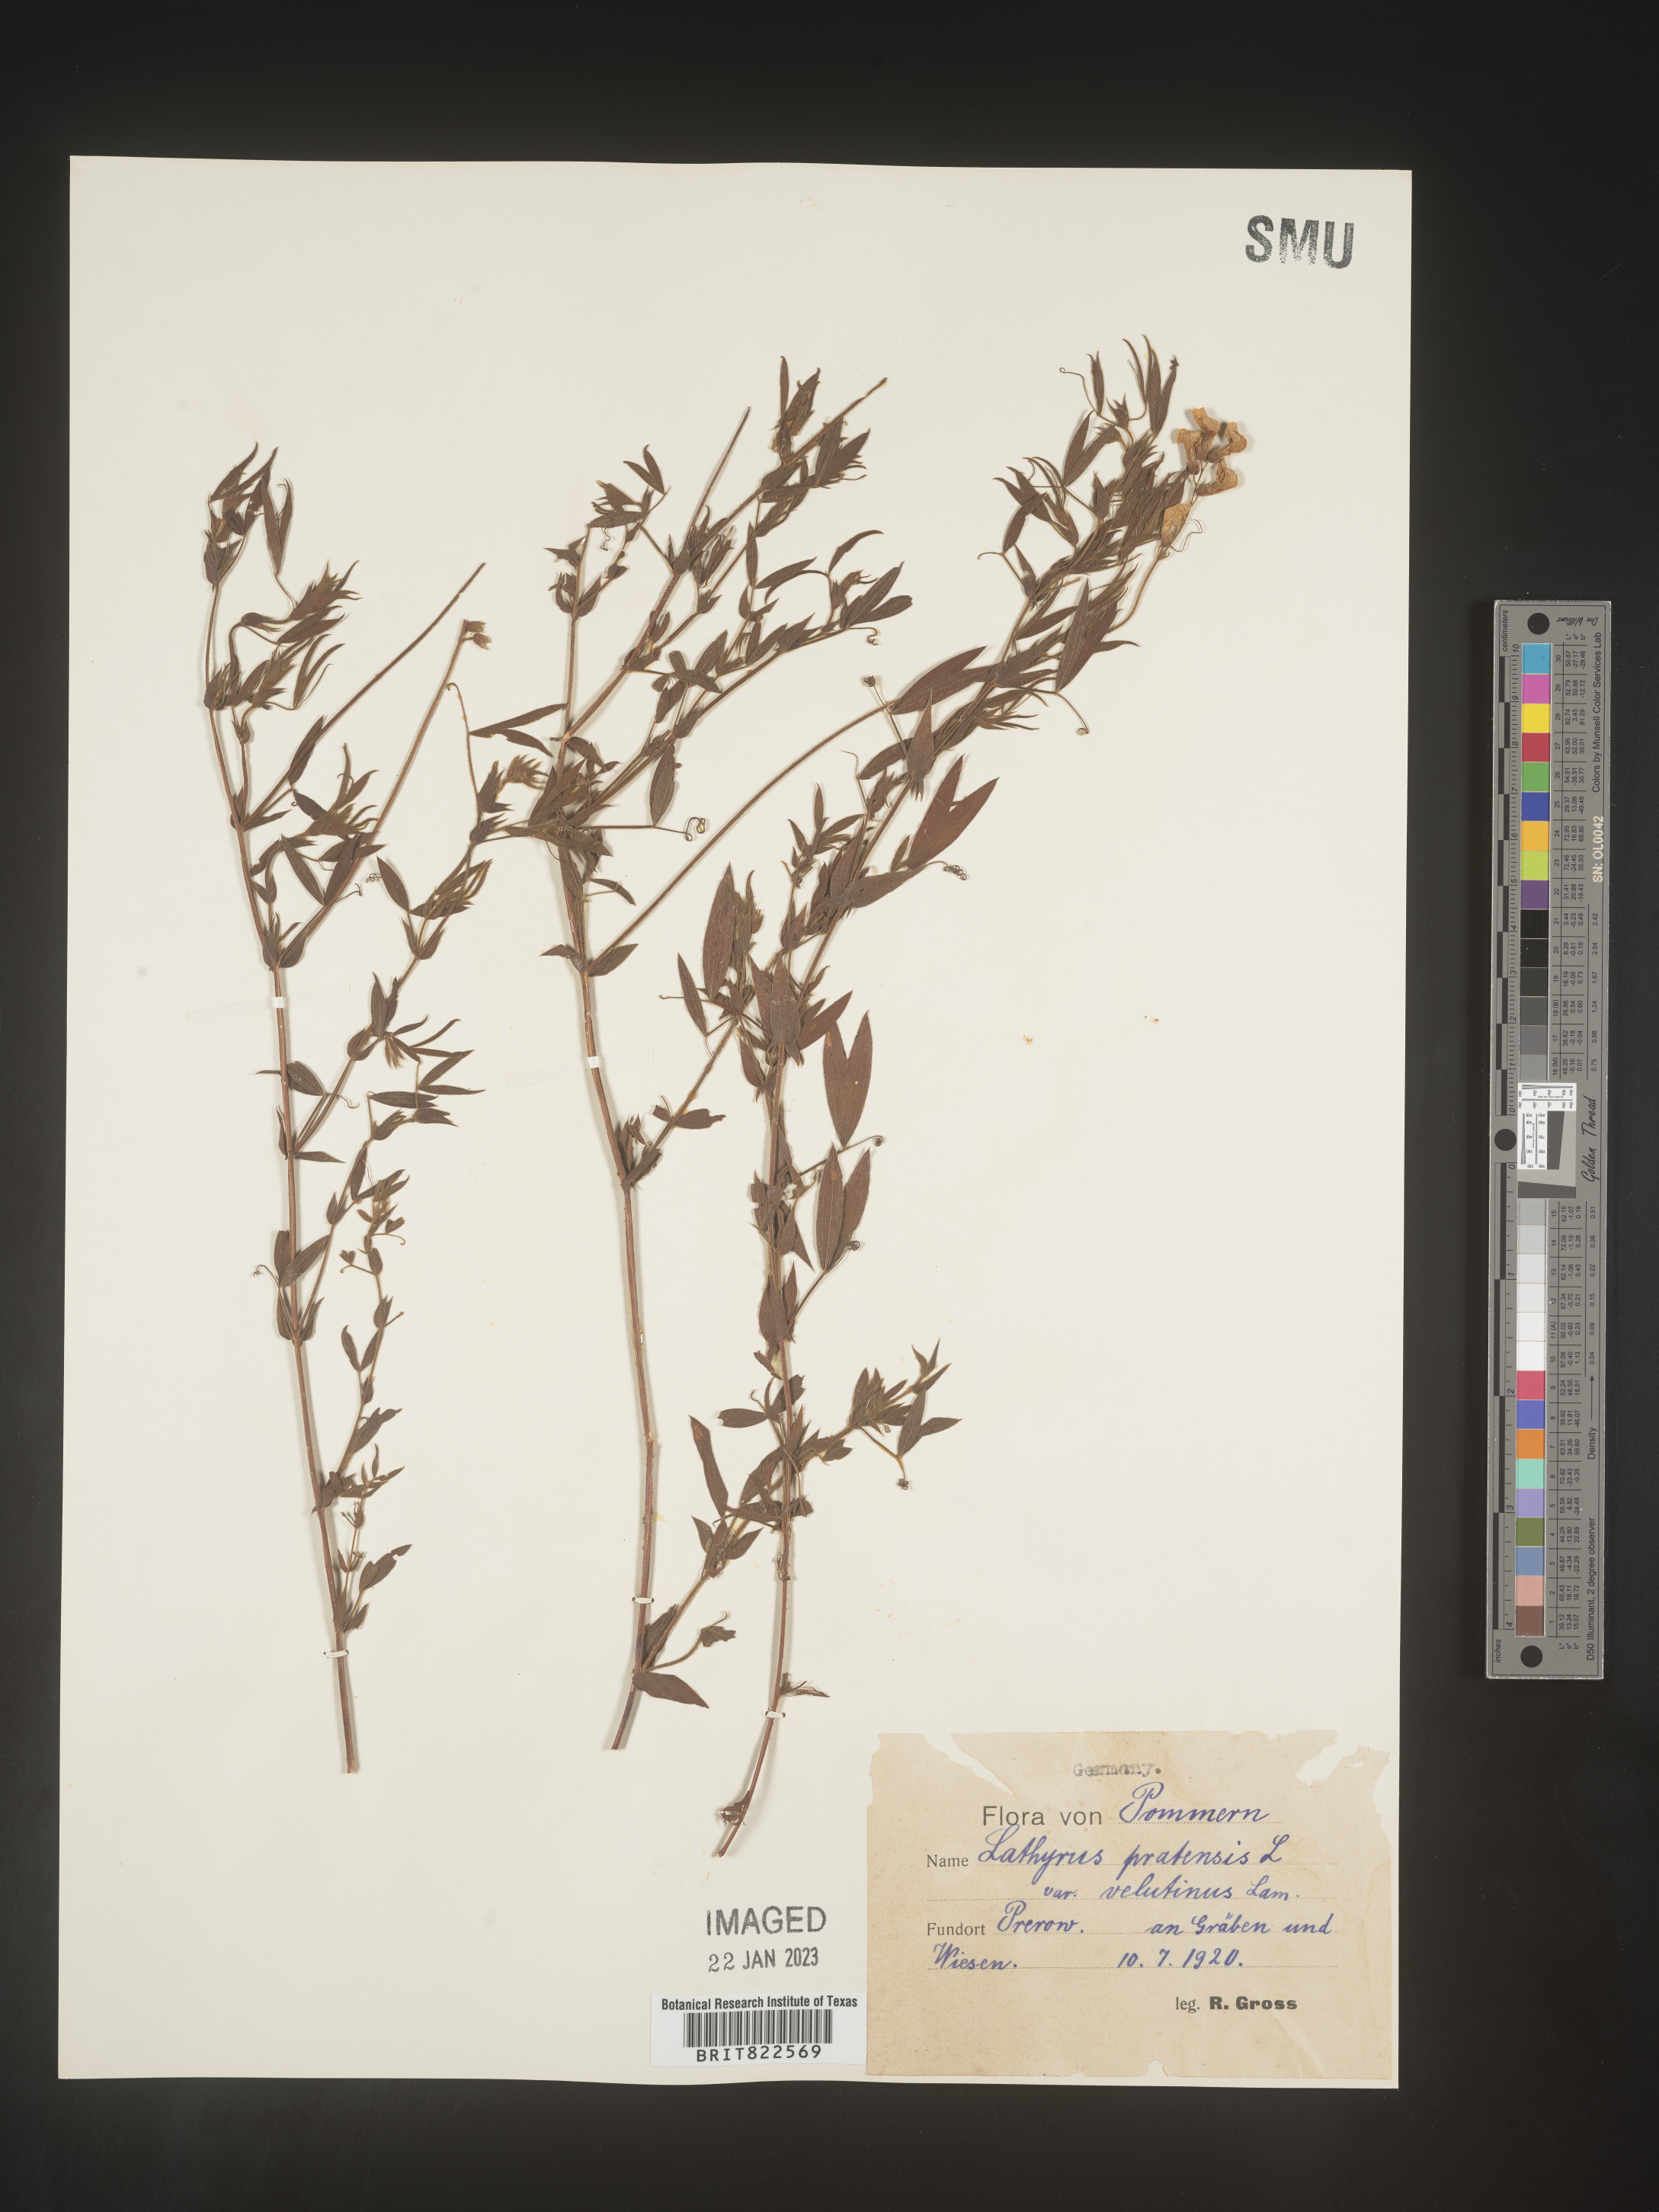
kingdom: Plantae
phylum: Tracheophyta
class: Magnoliopsida
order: Fabales
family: Fabaceae
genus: Lathyrus
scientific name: Lathyrus
